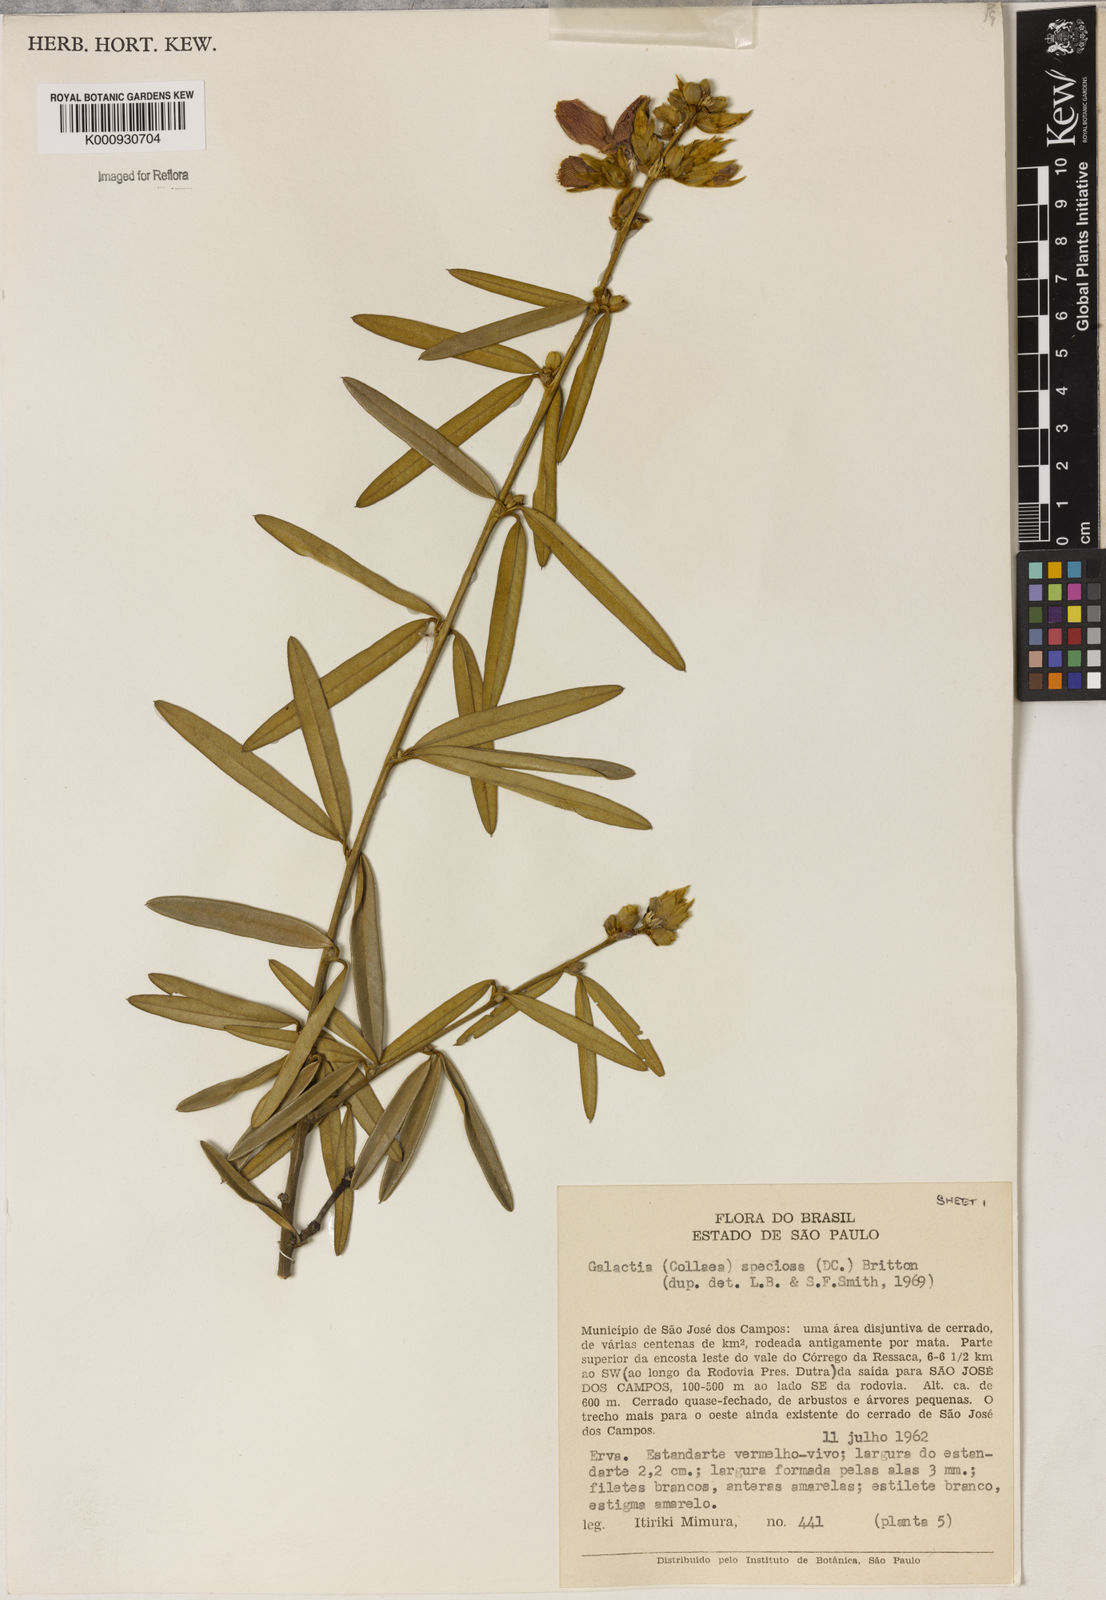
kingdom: Plantae
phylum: Tracheophyta
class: Magnoliopsida
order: Lamiales
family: Lamiaceae
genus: Coleus
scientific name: Coleus barbatus
